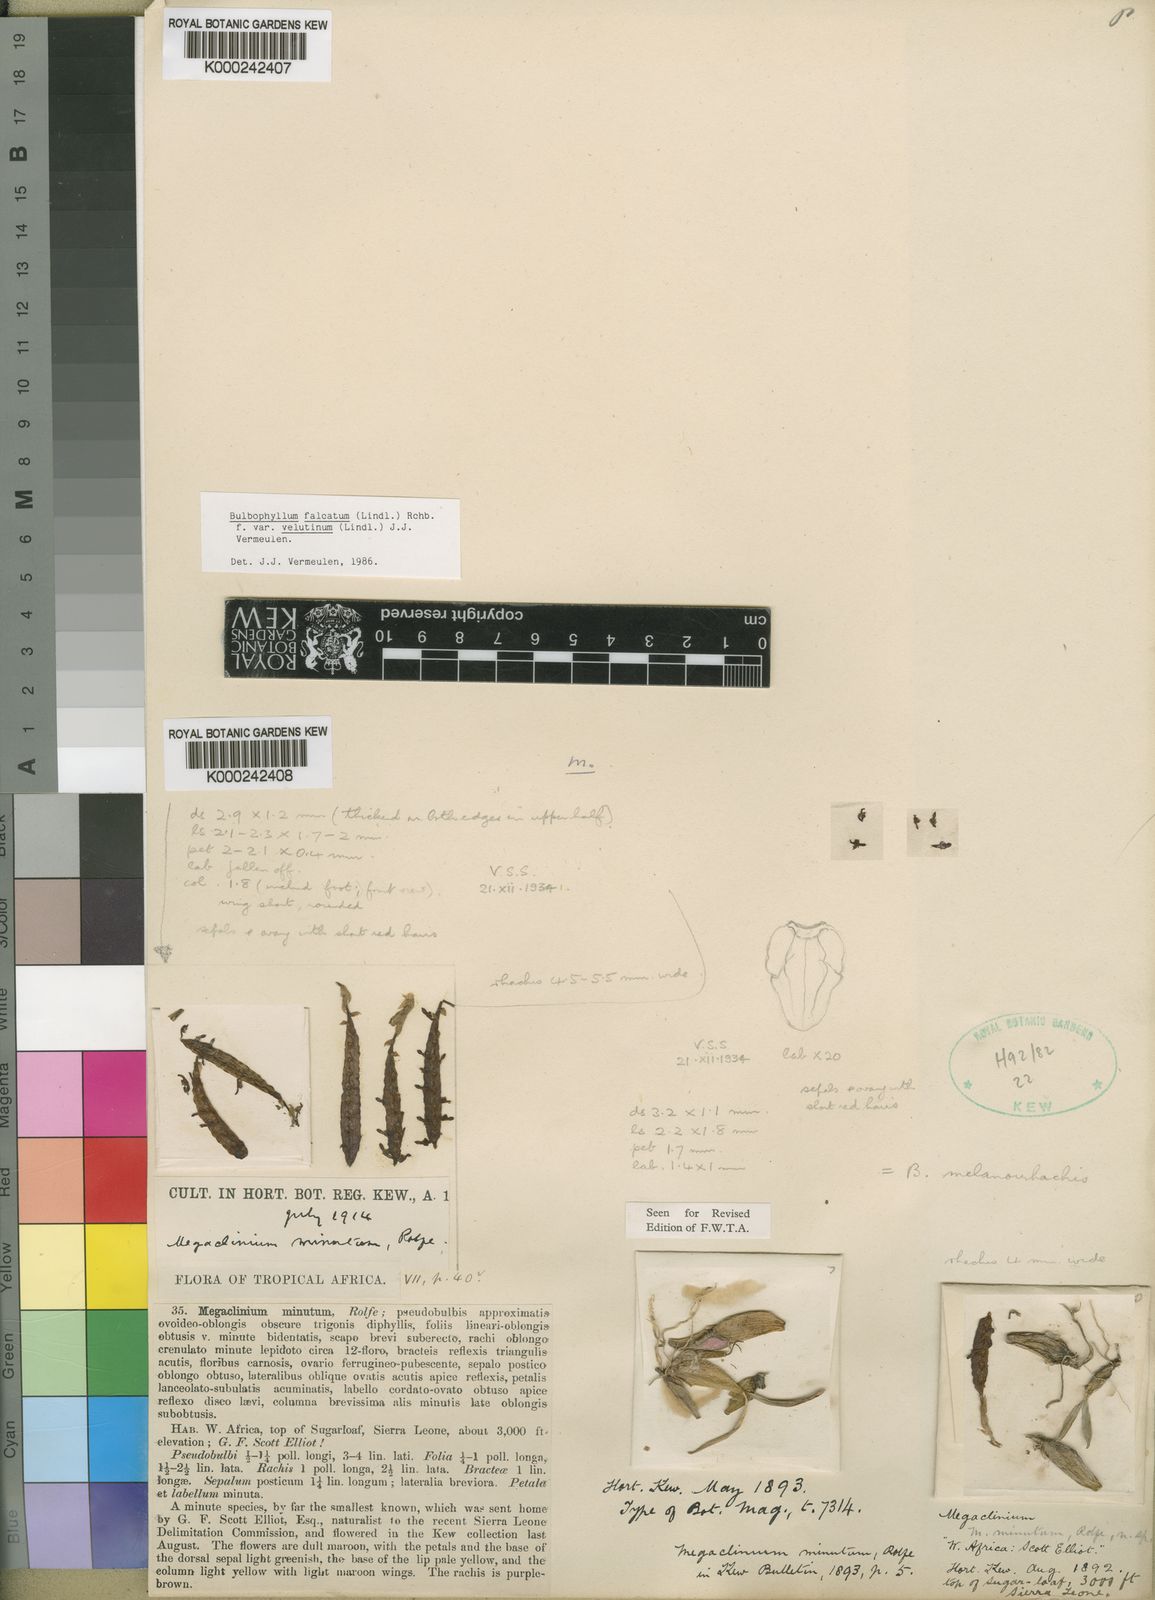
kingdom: Plantae
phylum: Tracheophyta
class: Liliopsida
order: Asparagales
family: Orchidaceae
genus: Bulbophyllum
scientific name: Bulbophyllum falcatum
